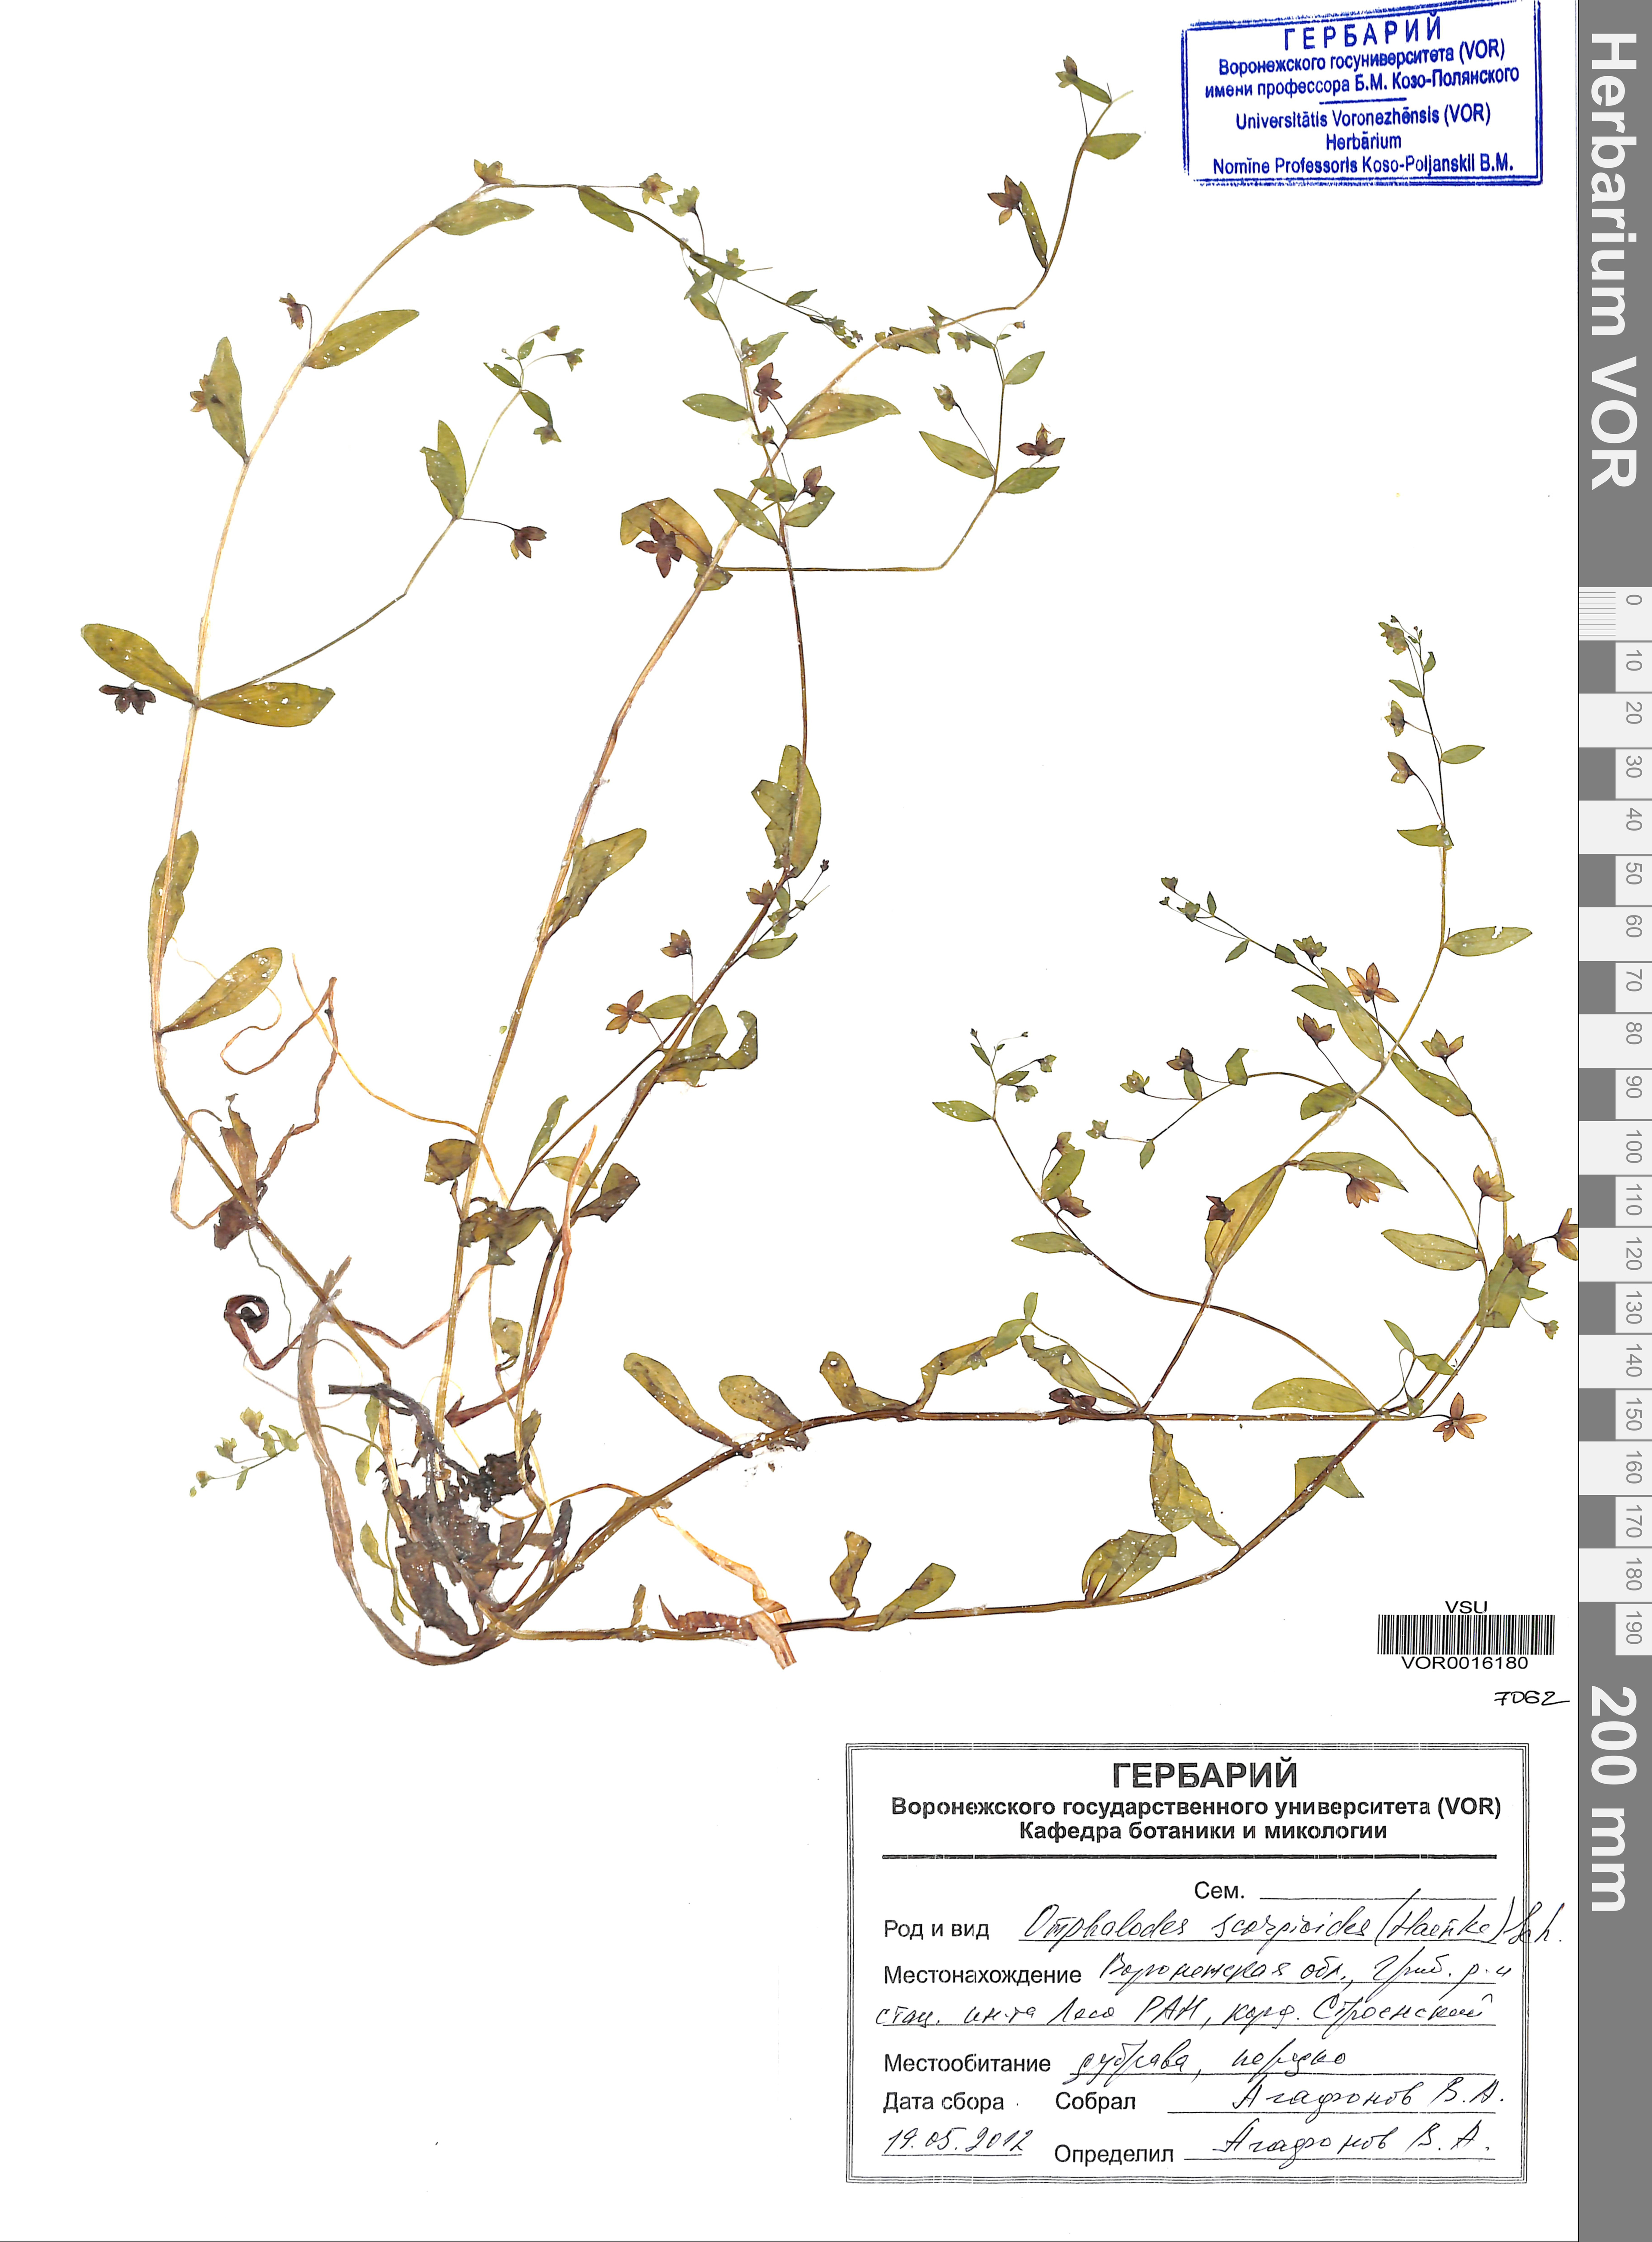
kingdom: Plantae
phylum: Tracheophyta
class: Magnoliopsida
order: Boraginales
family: Boraginaceae
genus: Memoremea
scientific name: Memoremea scorpioides
